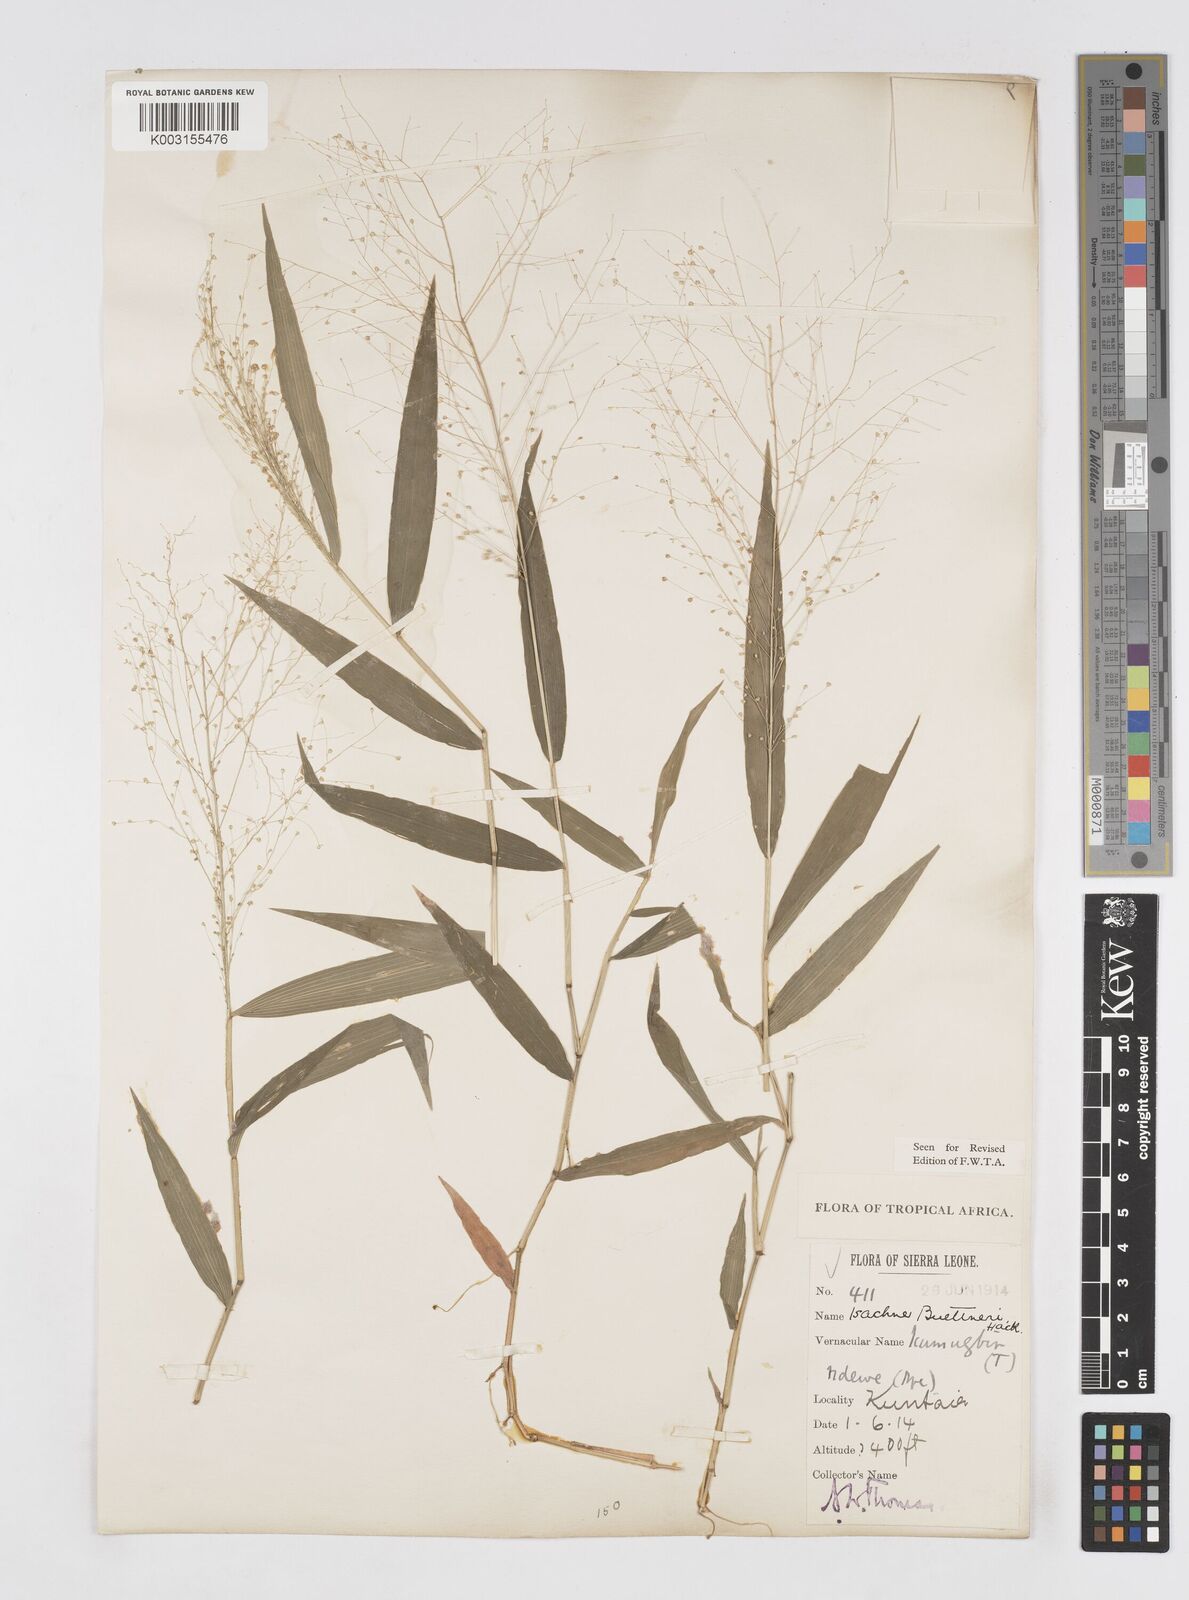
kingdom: Plantae
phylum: Tracheophyta
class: Liliopsida
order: Poales
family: Poaceae
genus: Isachne
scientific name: Isachne albens
